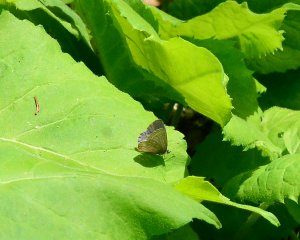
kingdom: Animalia
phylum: Arthropoda
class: Insecta
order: Lepidoptera
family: Lycaenidae
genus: Celastrina
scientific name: Celastrina lucia
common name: Northern Spring Azure
